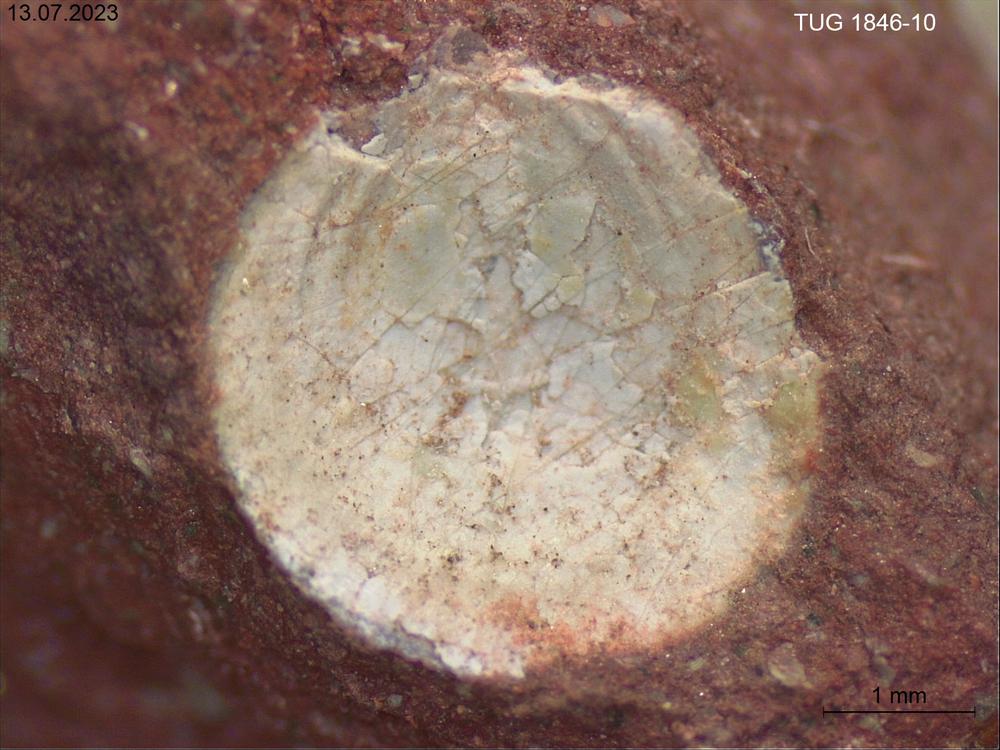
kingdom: Animalia
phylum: Brachiopoda
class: Lingulata
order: Lingulida
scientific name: Lingulida
